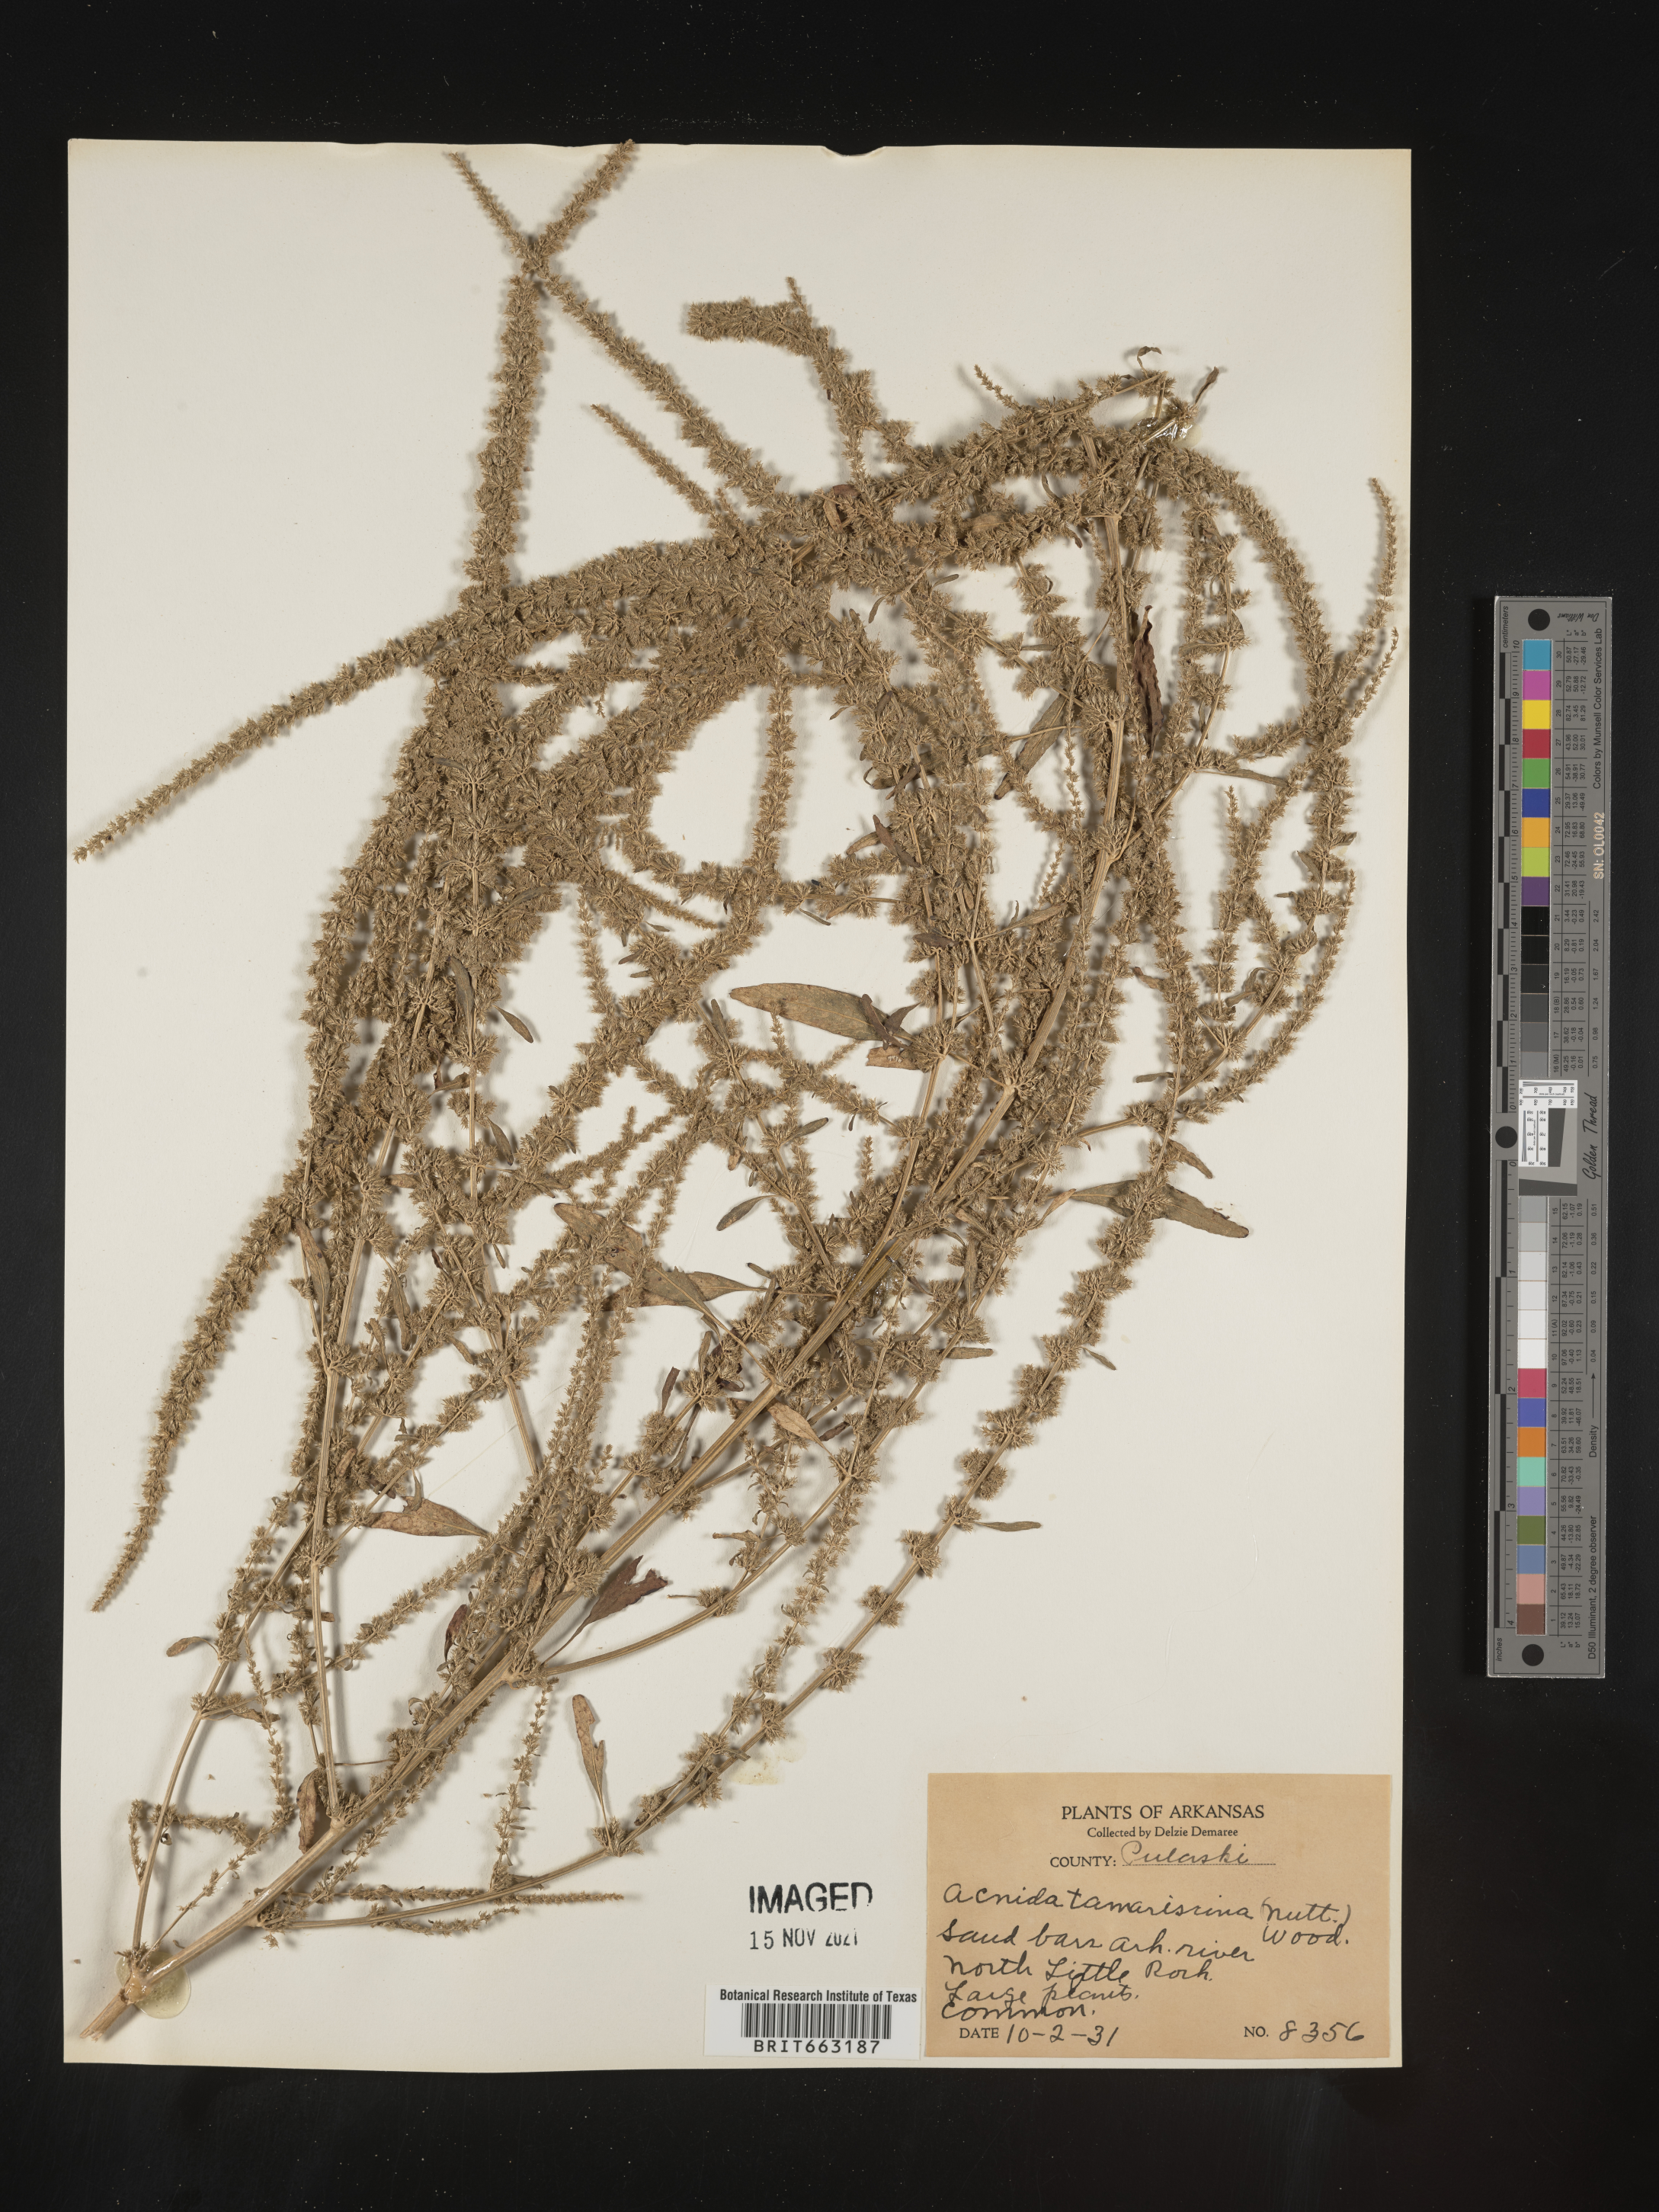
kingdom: Plantae
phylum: Tracheophyta
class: Magnoliopsida
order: Caryophyllales
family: Amaranthaceae
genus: Amaranthus
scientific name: Amaranthus tamariscinus
